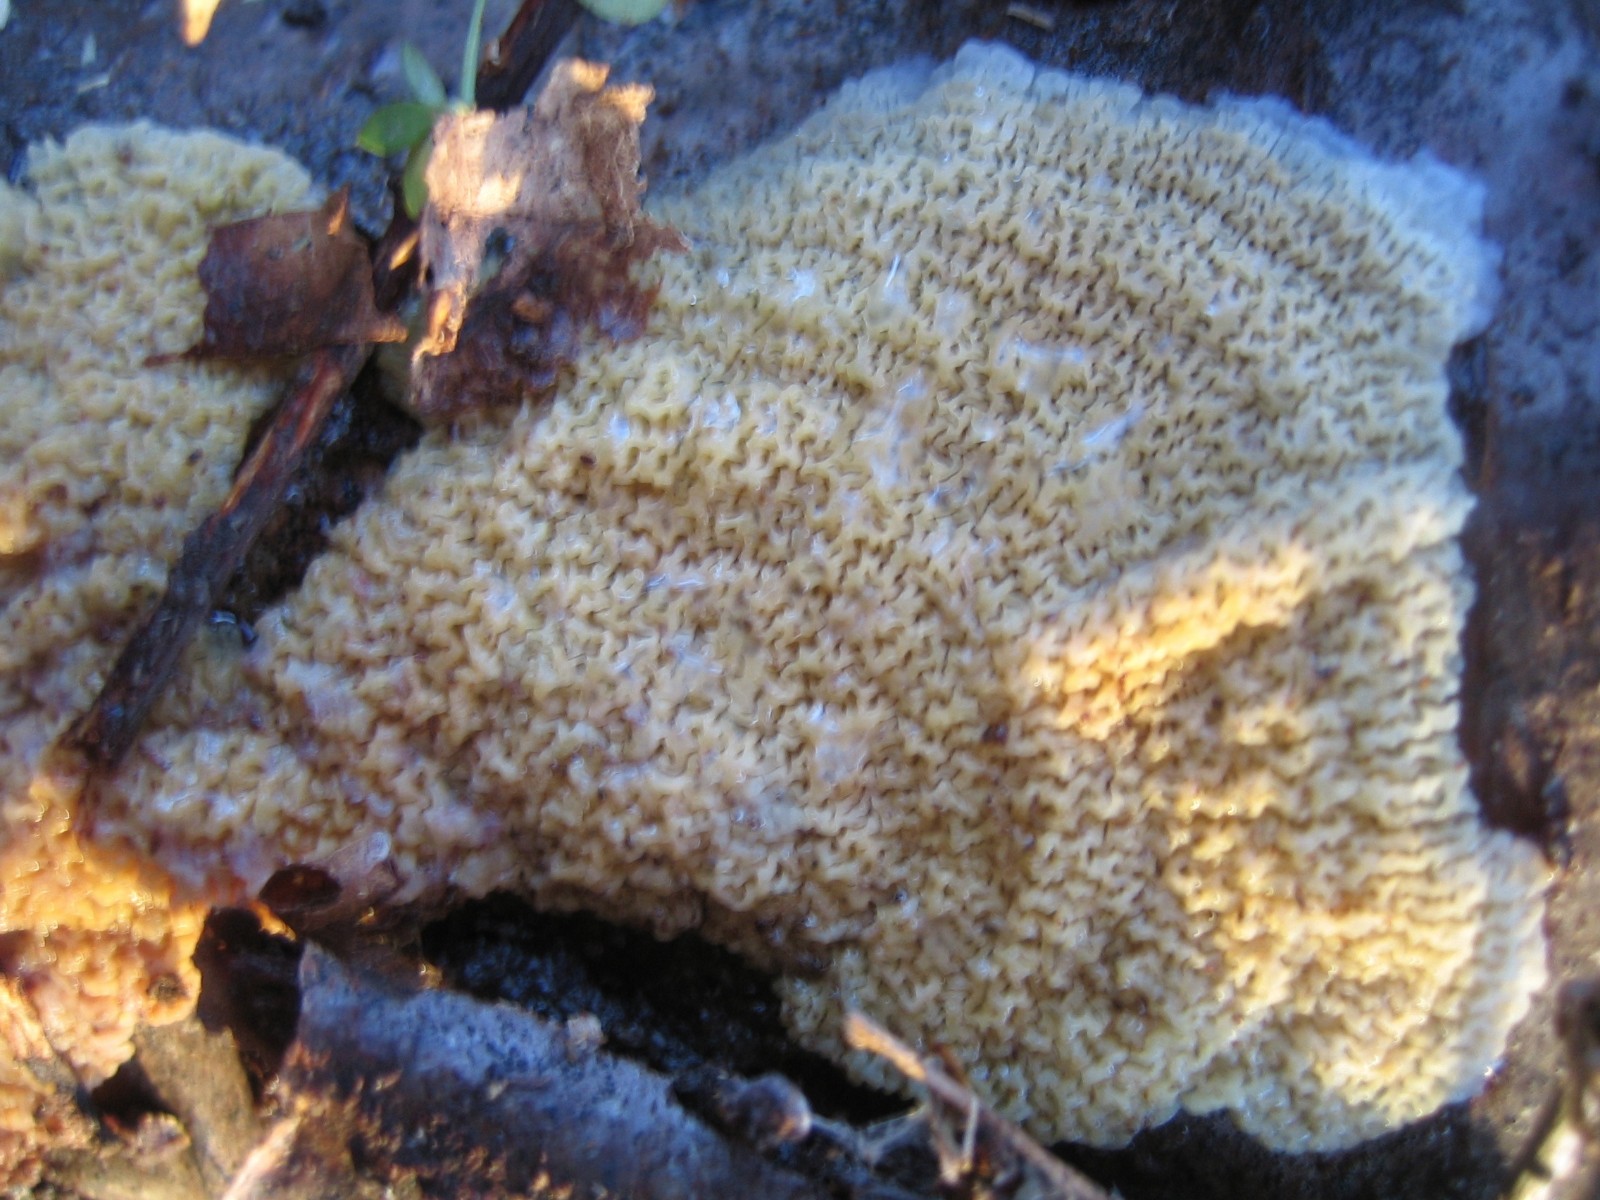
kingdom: Fungi
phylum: Basidiomycota
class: Agaricomycetes
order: Polyporales
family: Meruliaceae
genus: Phlebia
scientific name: Phlebia tremellosa
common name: bævrende åresvamp
